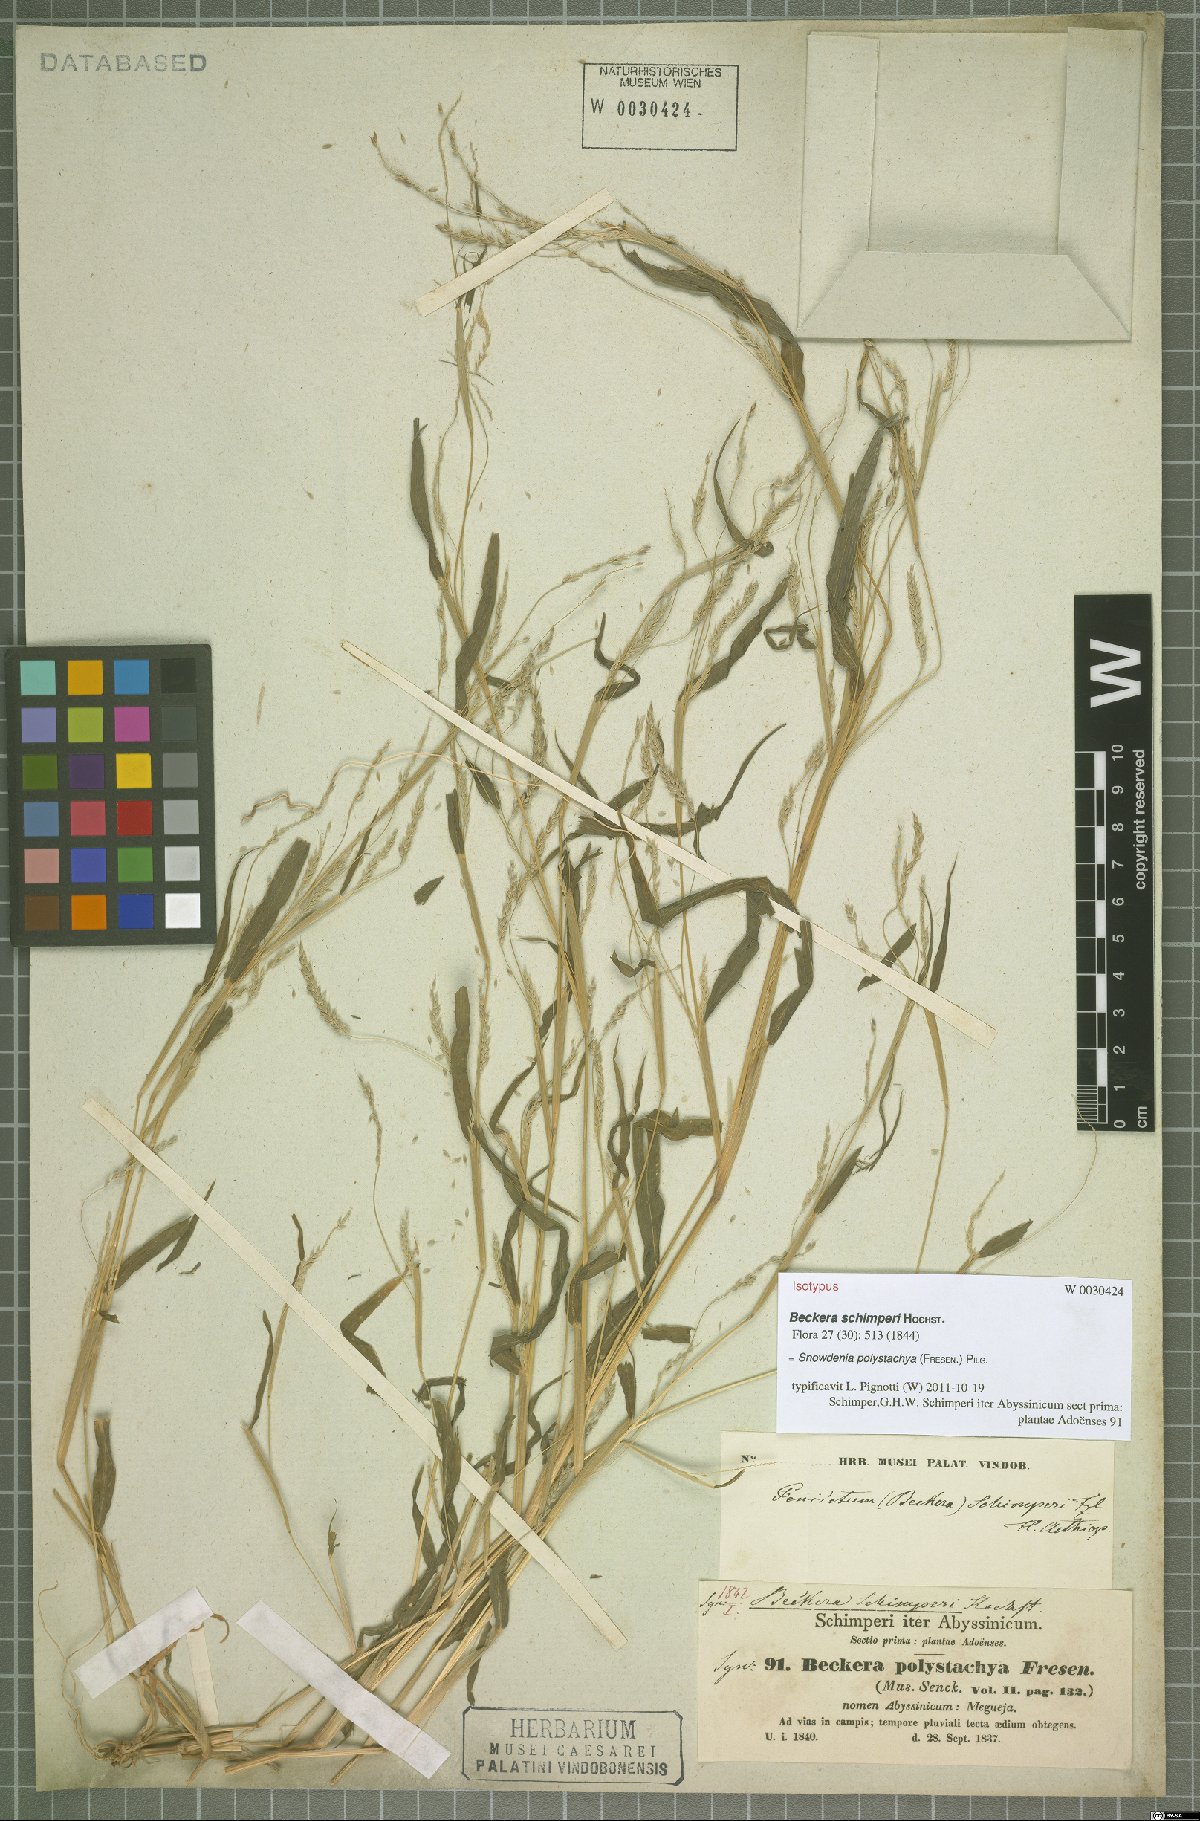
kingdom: Plantae
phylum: Tracheophyta
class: Liliopsida
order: Poales
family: Poaceae
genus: Snowdenia
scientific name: Snowdenia polystachya
